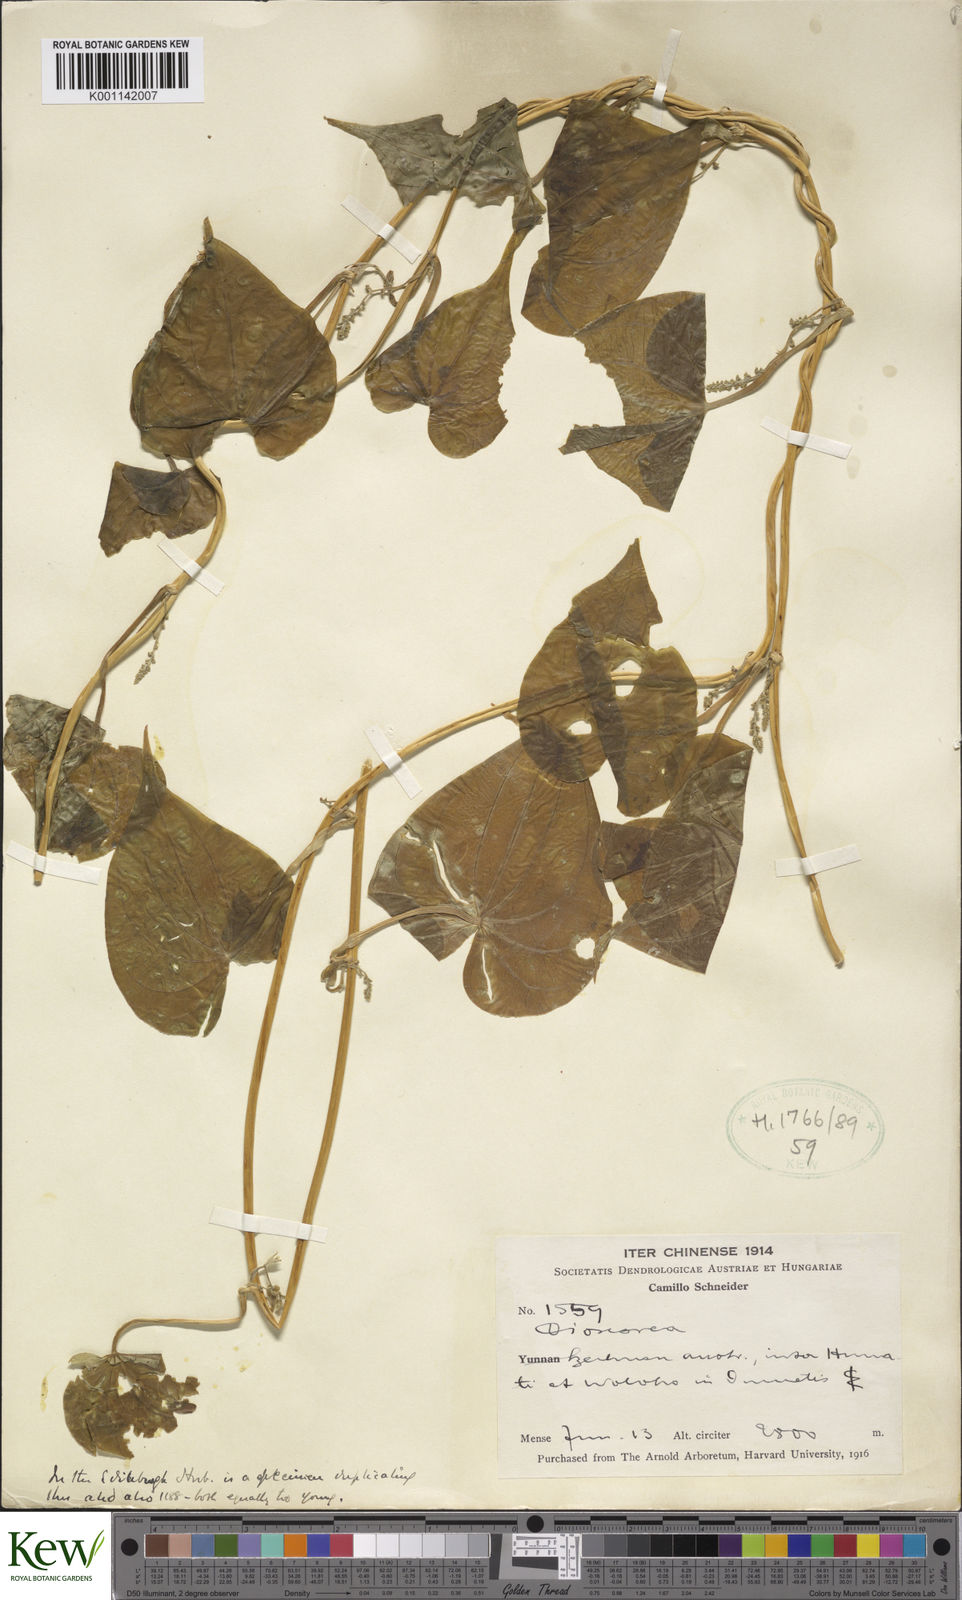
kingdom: Plantae
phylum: Tracheophyta
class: Liliopsida
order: Dioscoreales
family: Dioscoreaceae
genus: Dioscorea
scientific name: Dioscorea
